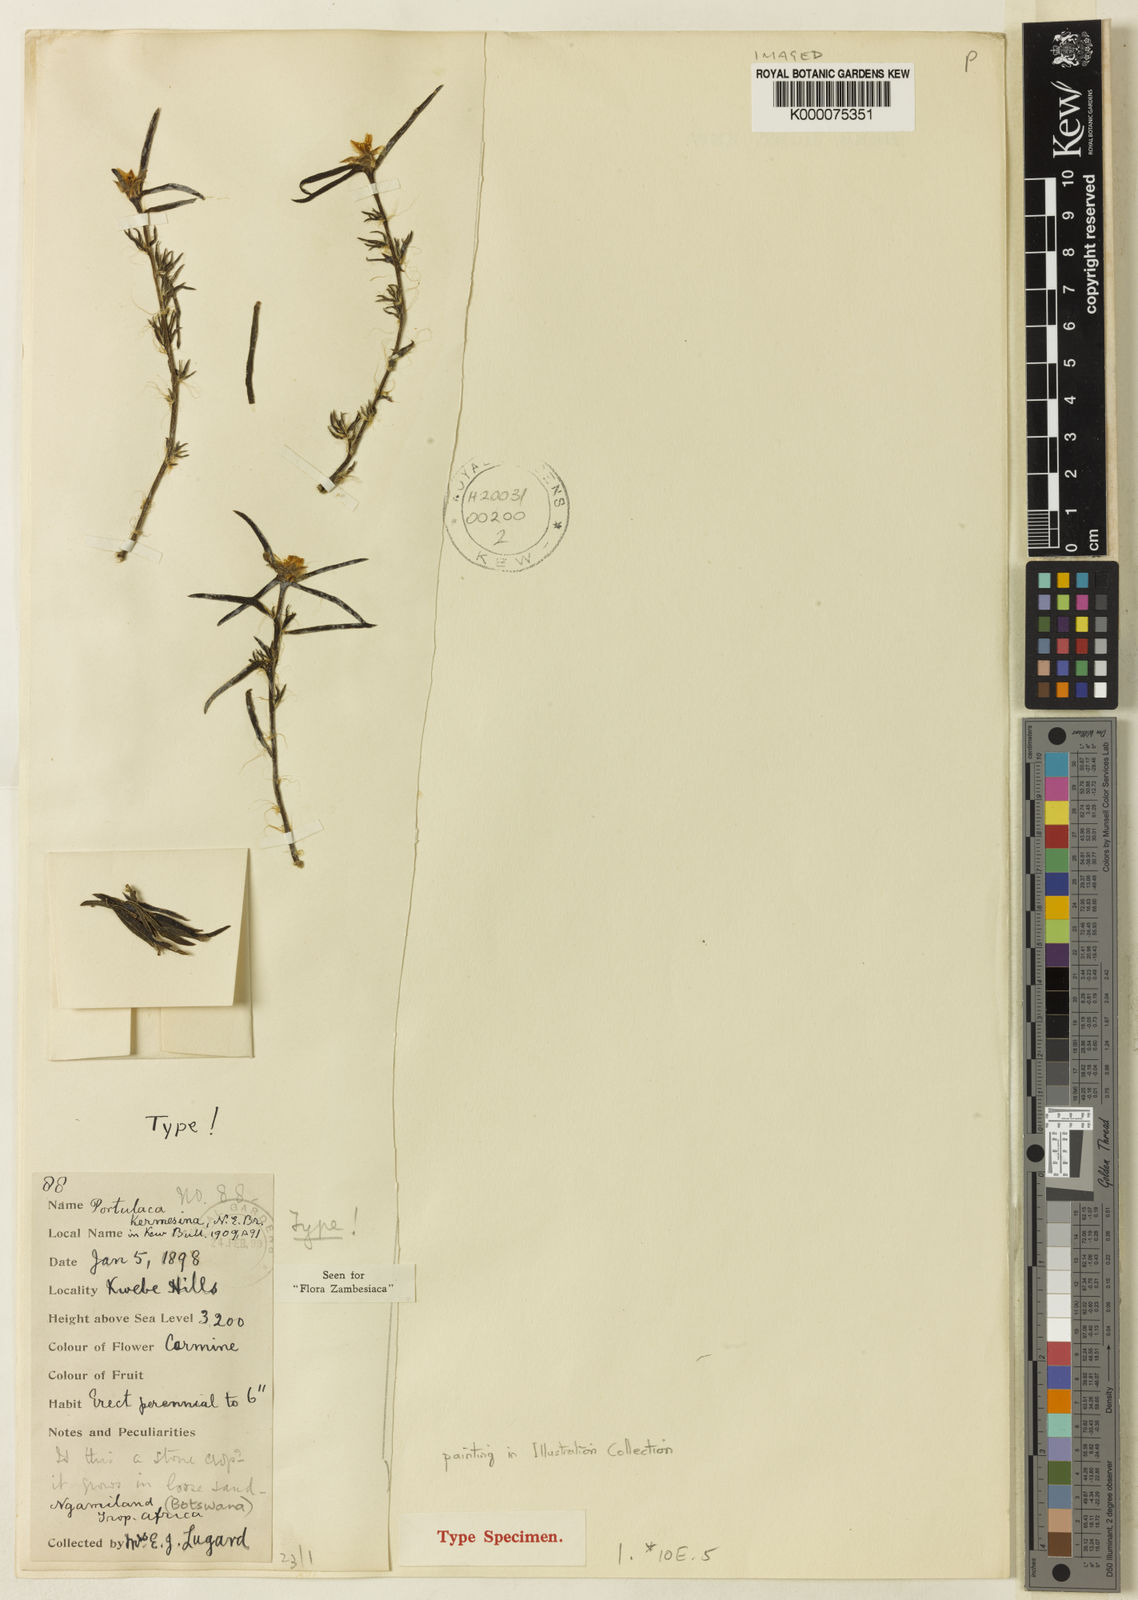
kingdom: Plantae
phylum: Tracheophyta
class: Magnoliopsida
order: Caryophyllales
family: Portulacaceae
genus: Portulaca
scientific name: Portulaca kermesina
